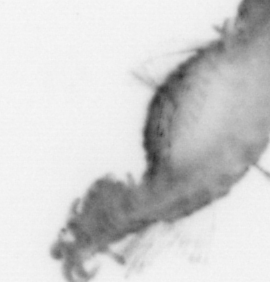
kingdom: Animalia
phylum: Annelida
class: Polychaeta
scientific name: Polychaeta
